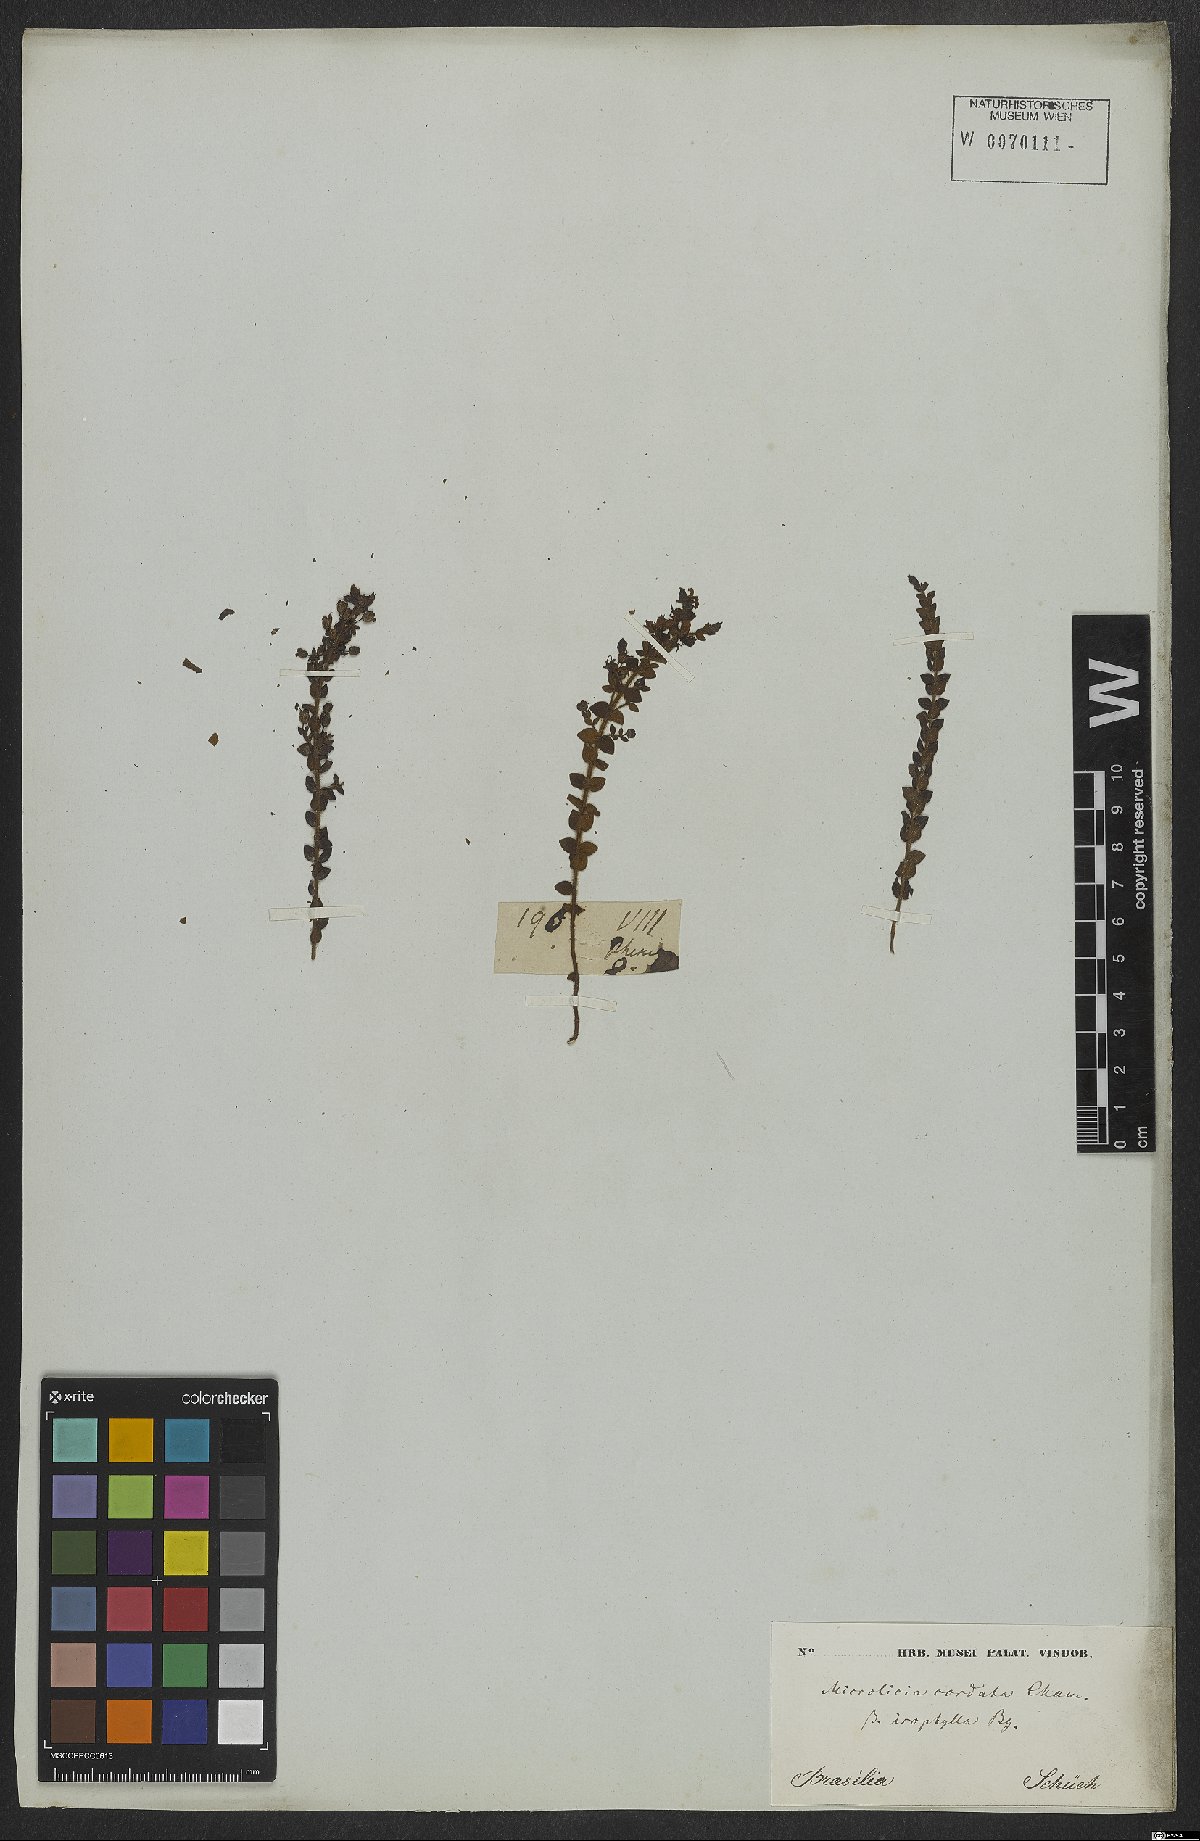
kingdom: Plantae
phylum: Tracheophyta
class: Magnoliopsida
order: Myrtales
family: Melastomataceae
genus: Microlicia
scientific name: Microlicia cordata
